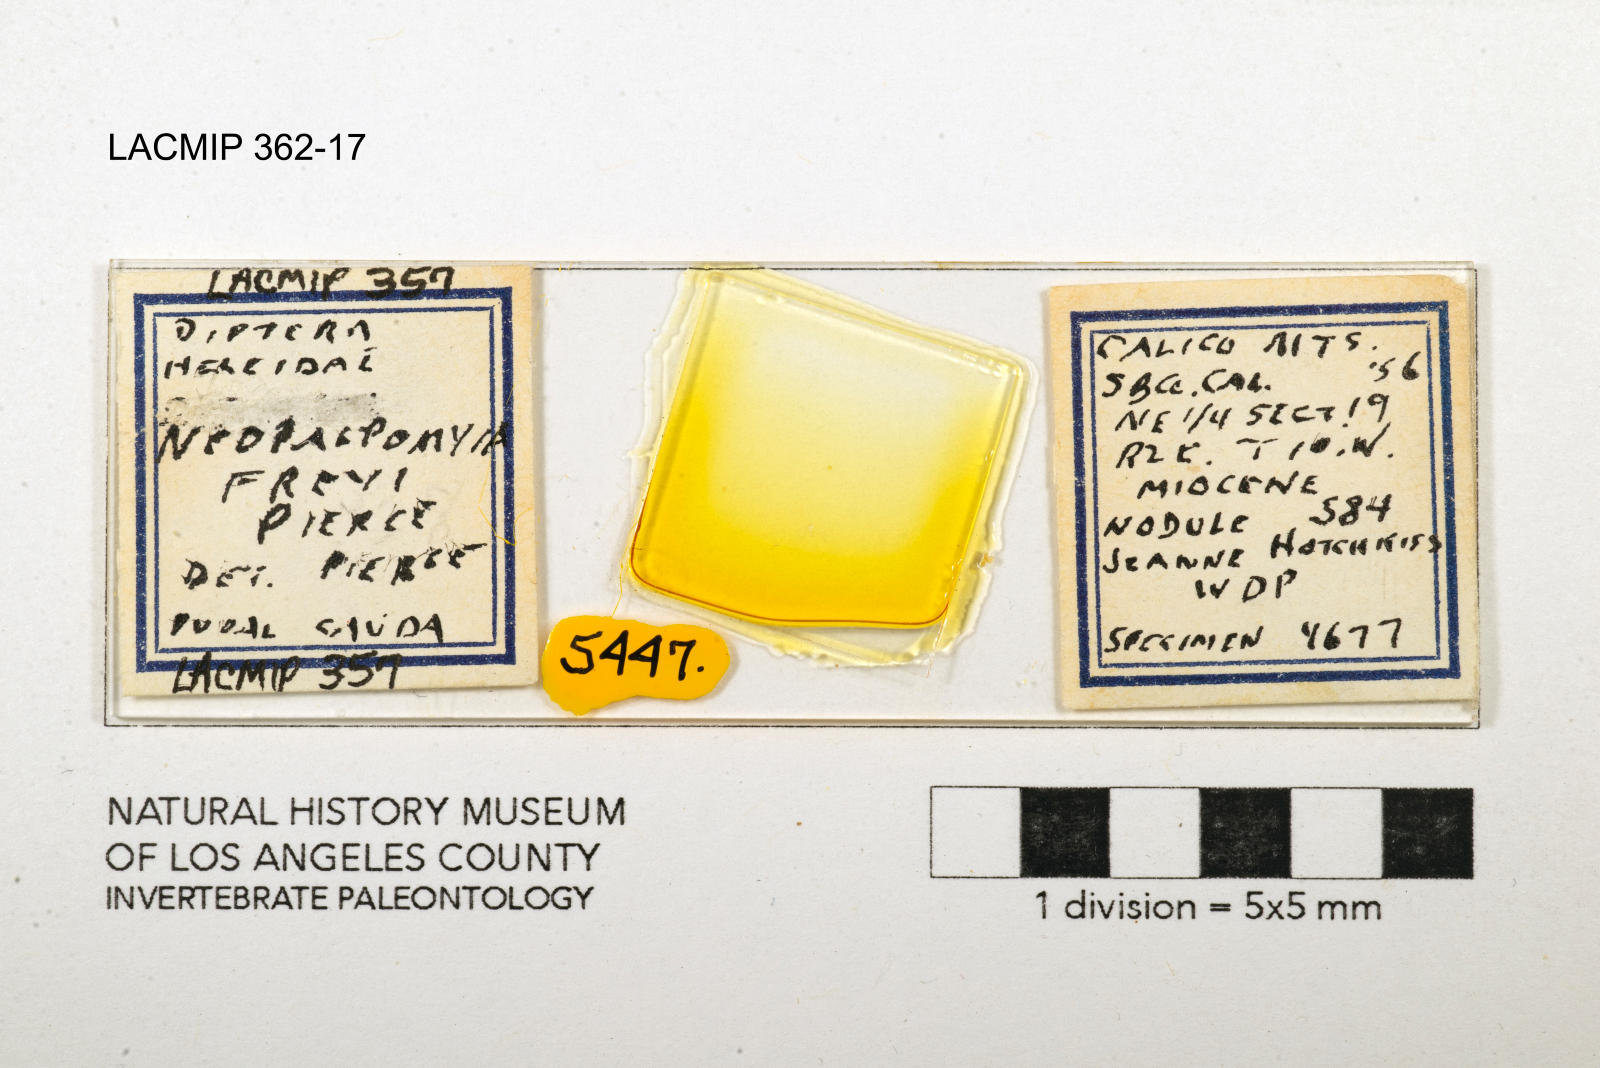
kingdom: Animalia
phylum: Arthropoda
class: Insecta
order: Diptera
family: Ceratopogonidae
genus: Palpomyia
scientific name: Palpomyia freyi
